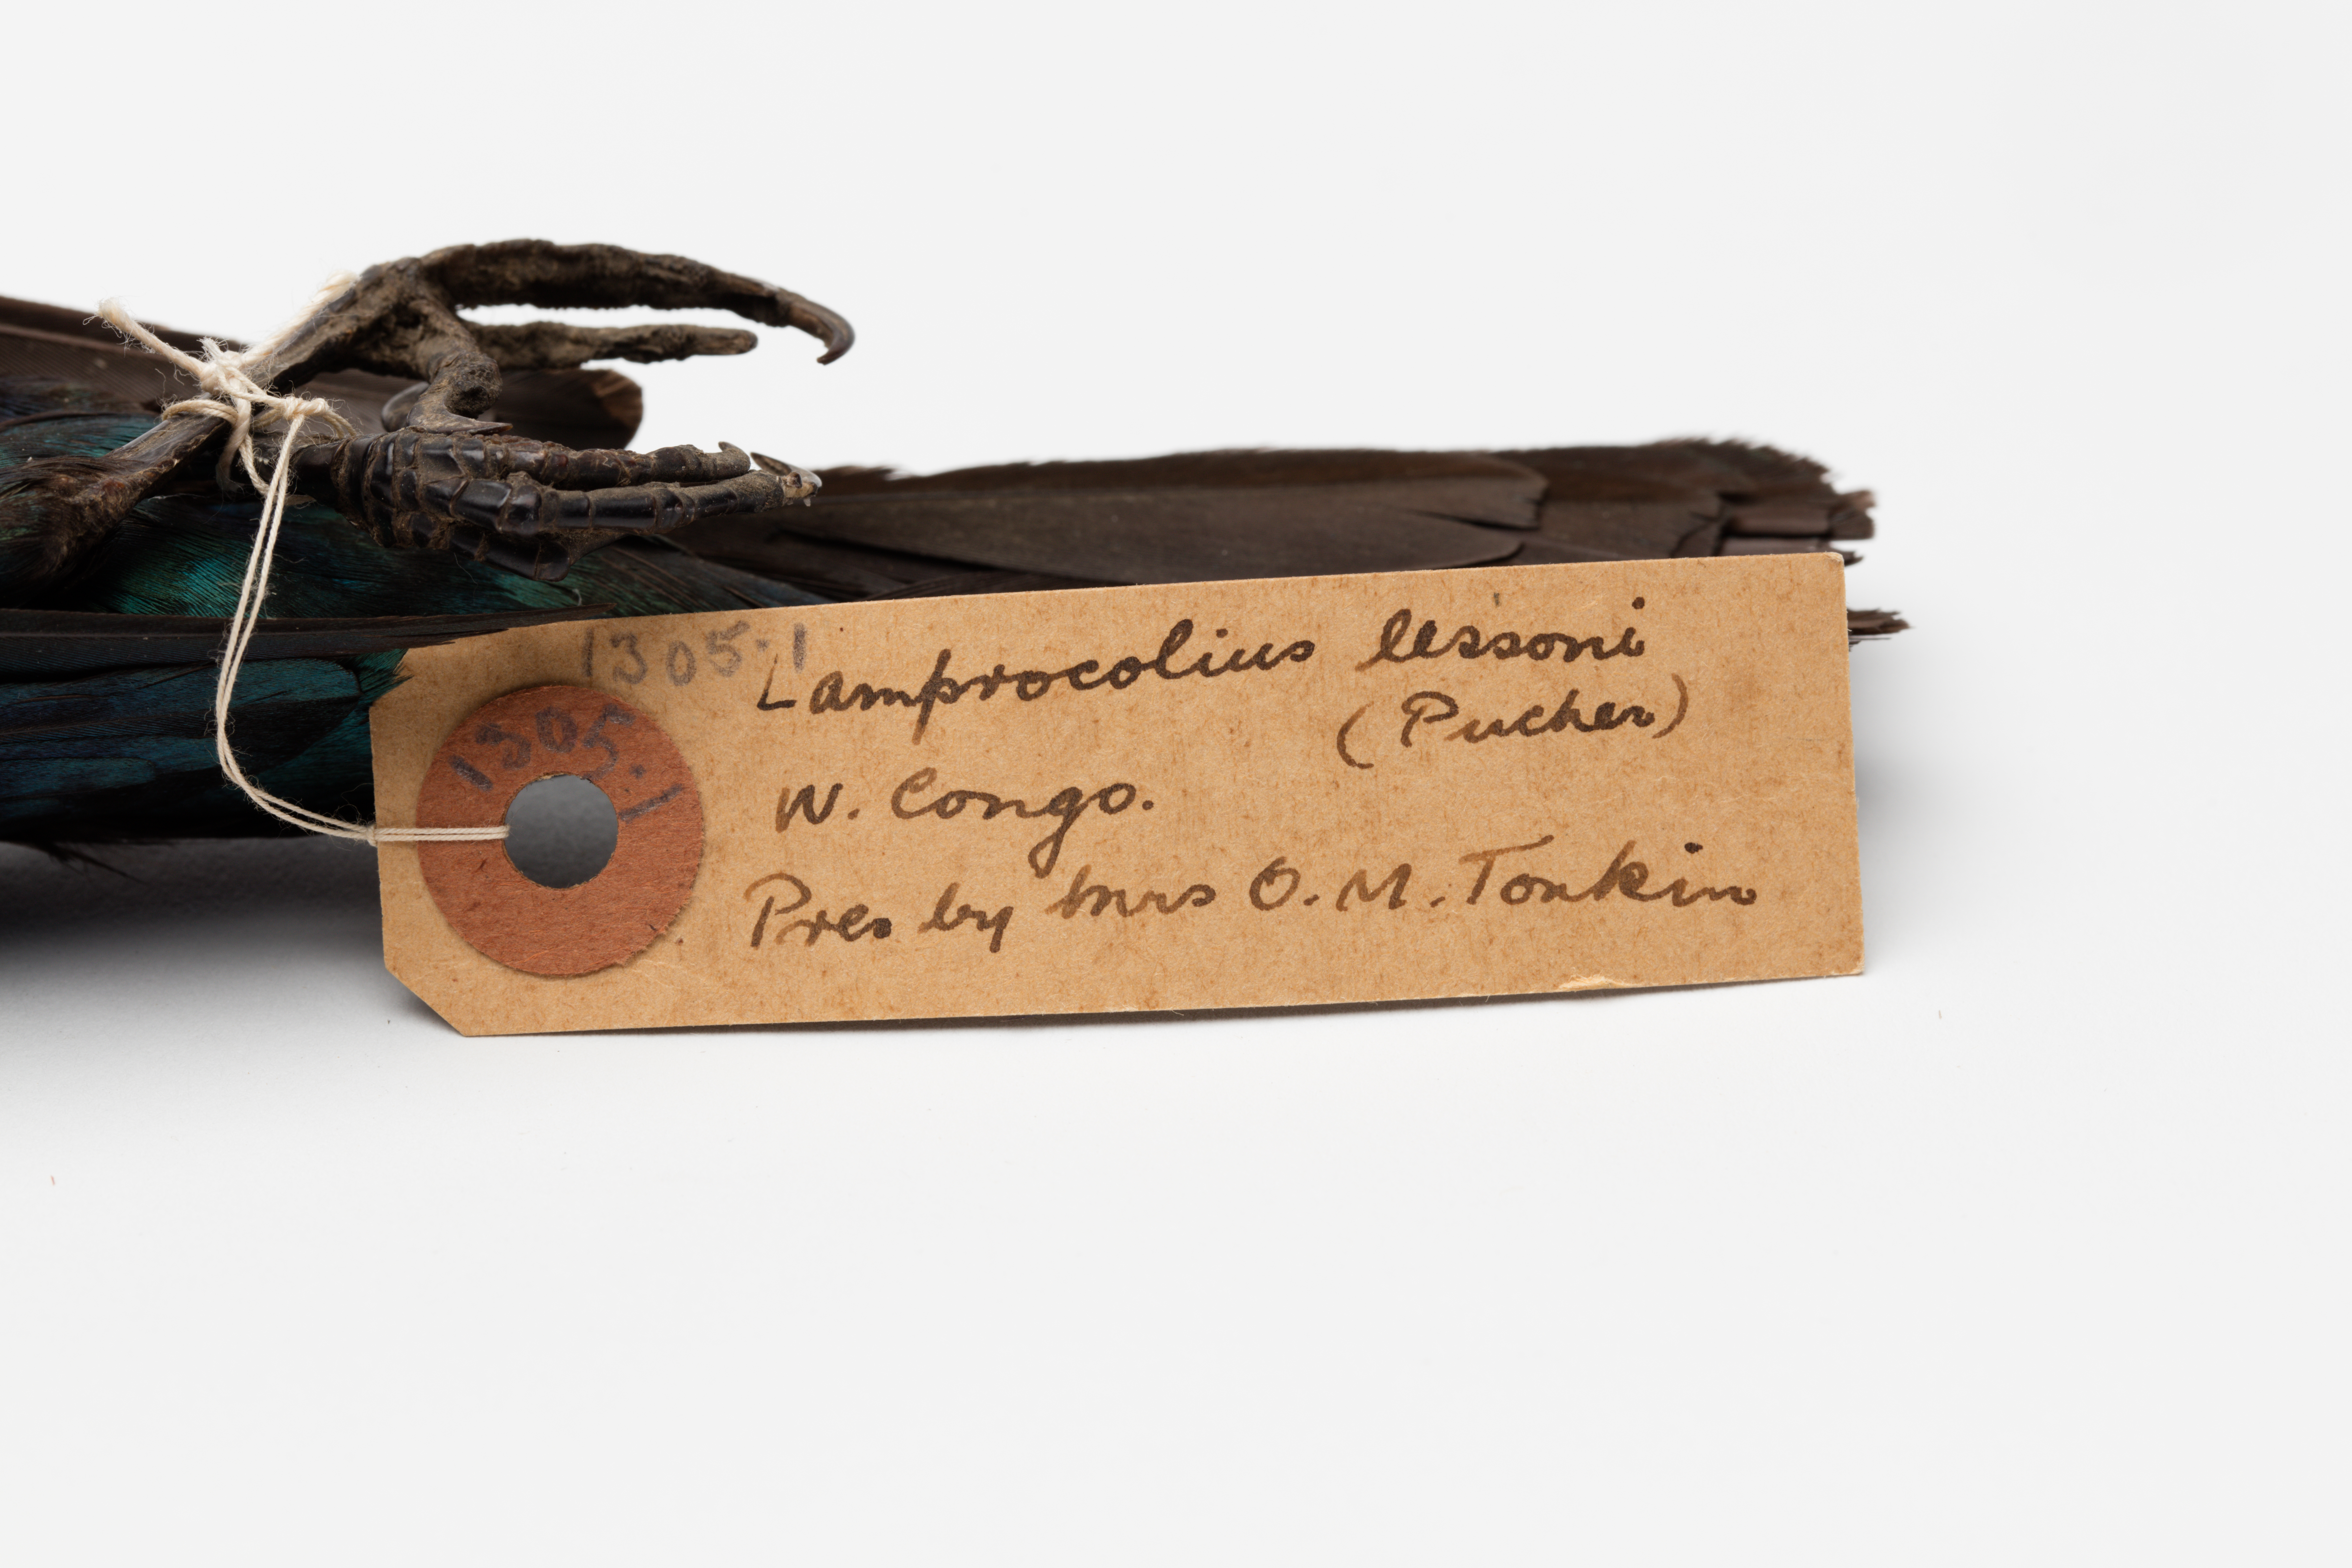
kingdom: Animalia
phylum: Chordata
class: Aves
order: Passeriformes
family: Sturnidae
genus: Lamprotornis
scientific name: Lamprotornis splendidus
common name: Splendid starling
